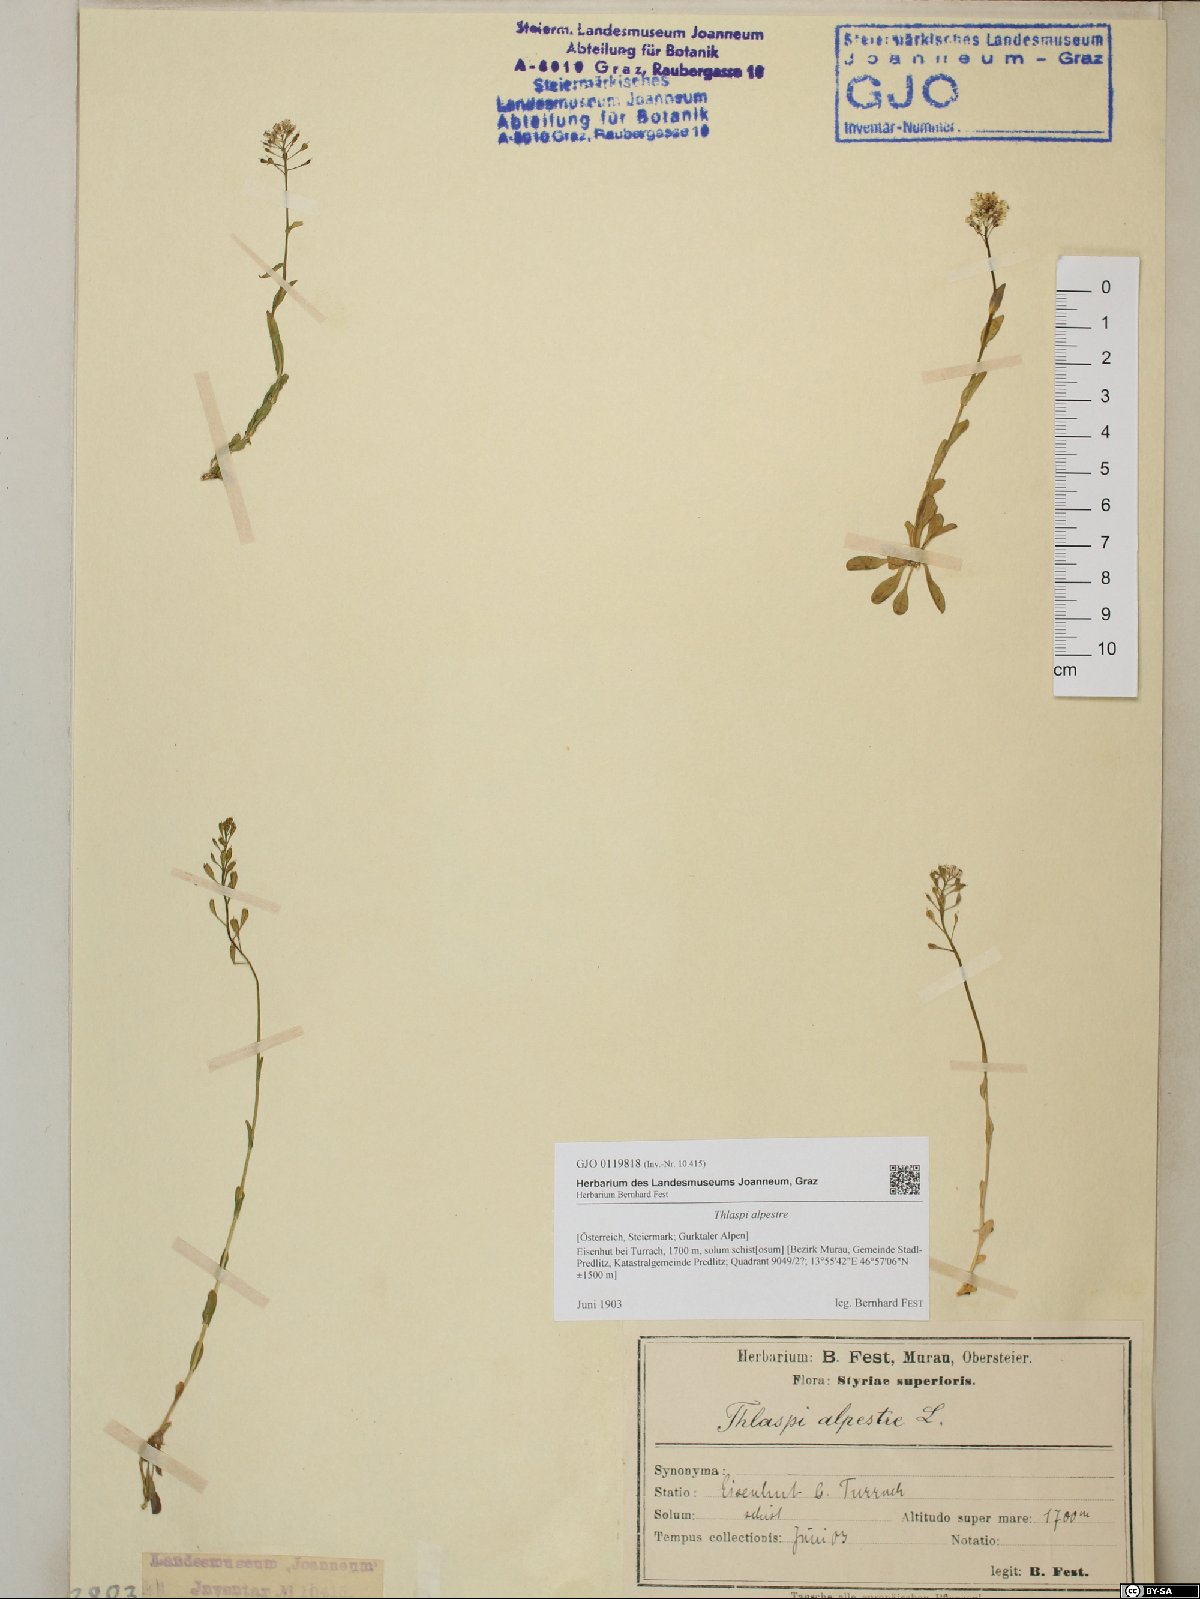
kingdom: Plantae
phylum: Tracheophyta
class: Magnoliopsida
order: Brassicales
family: Brassicaceae
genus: Noccaea
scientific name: Noccaea alpestris
